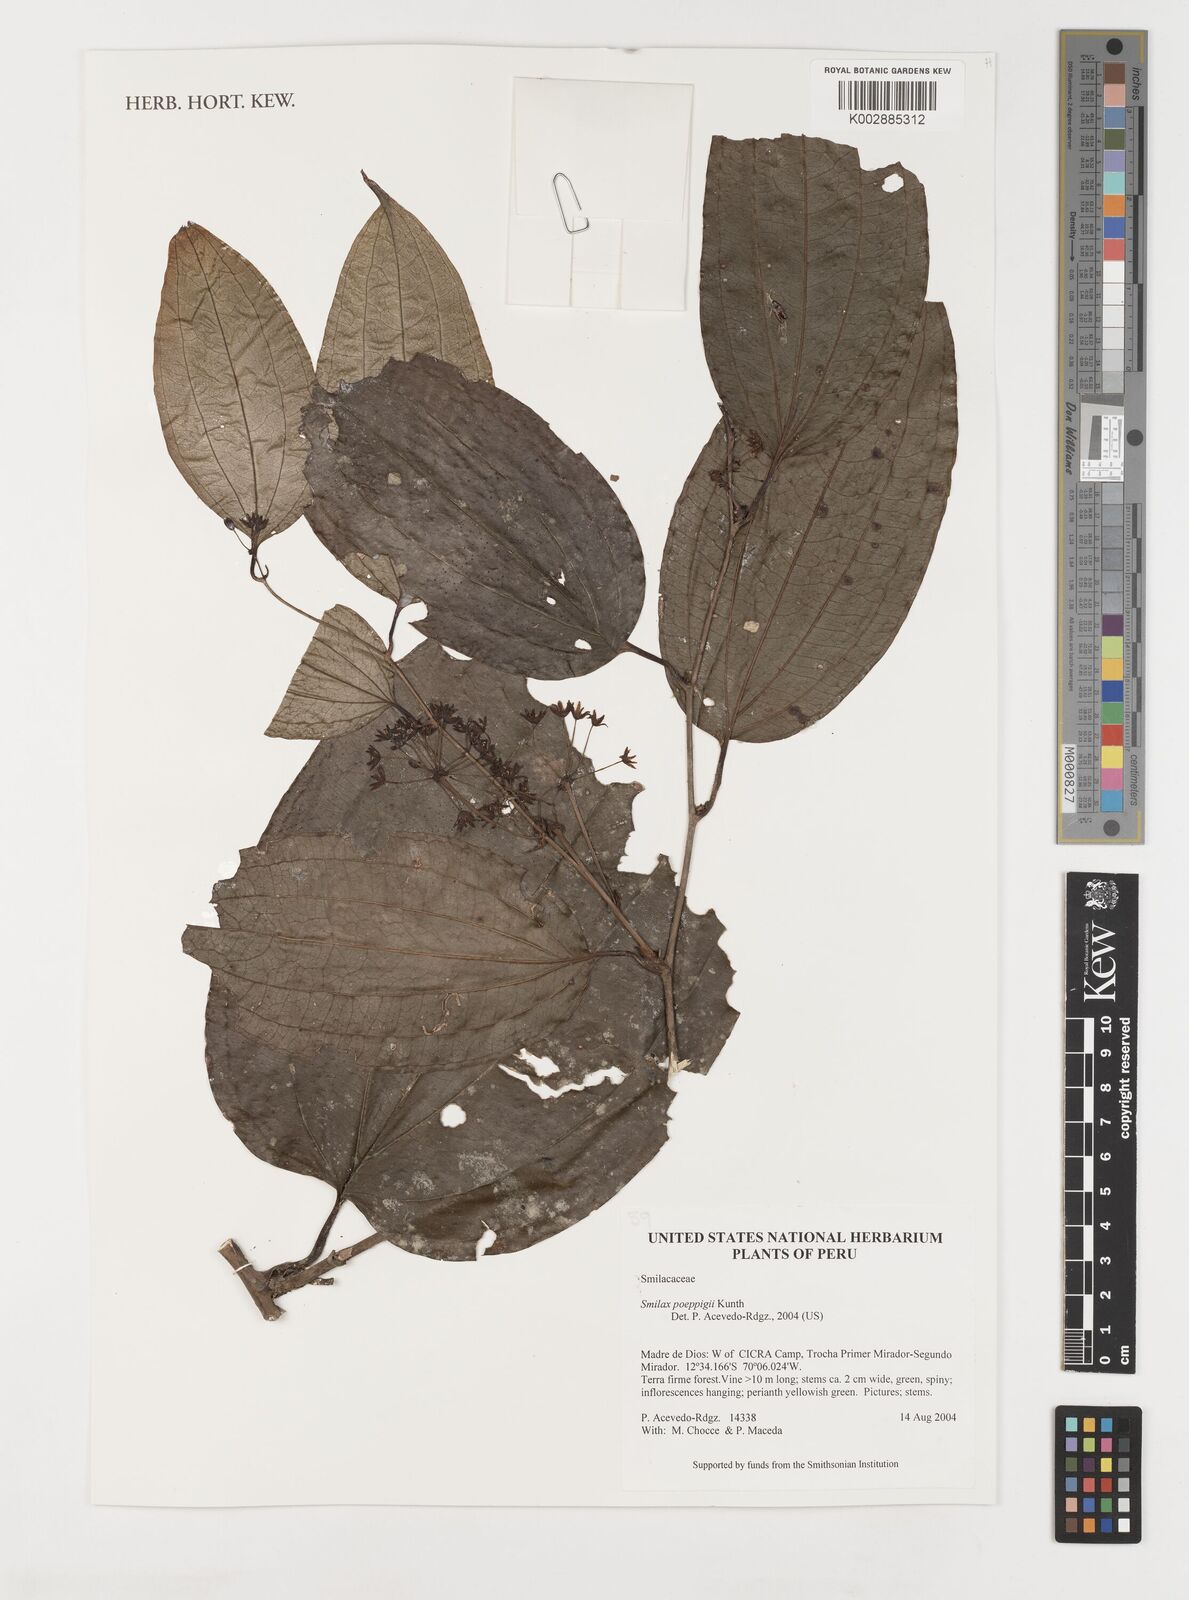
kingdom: Plantae
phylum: Tracheophyta
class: Liliopsida
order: Liliales
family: Smilacaceae
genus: Smilax
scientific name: Smilax purhampuy
